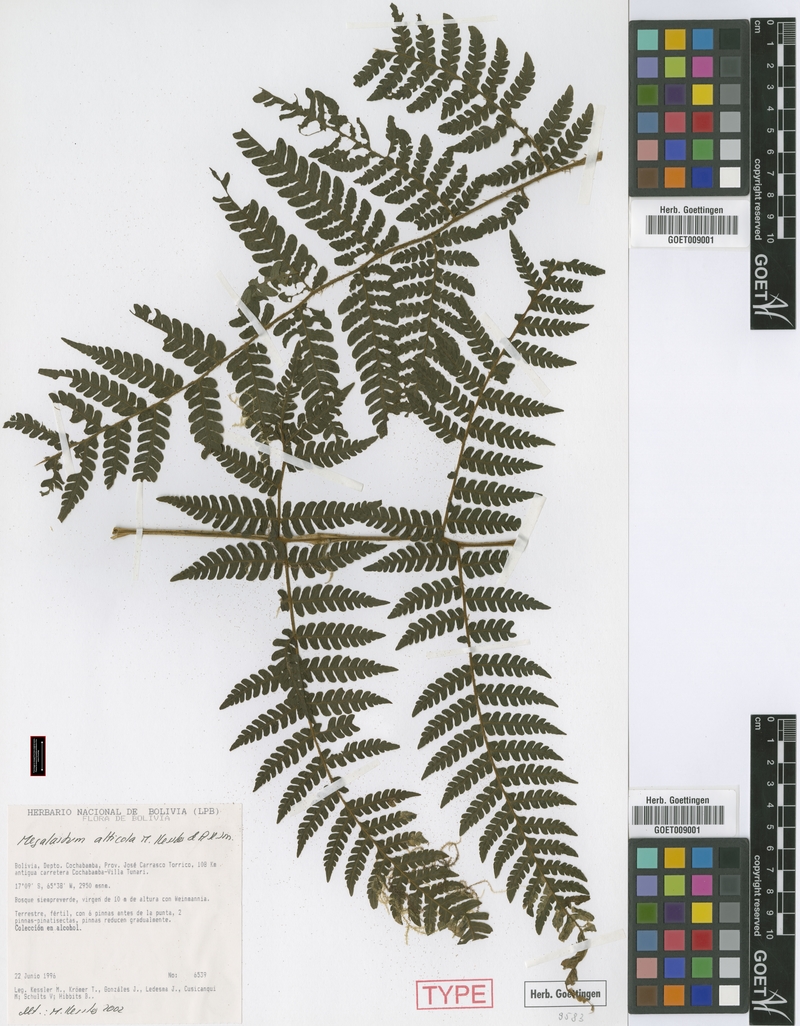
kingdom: Plantae
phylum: Tracheophyta
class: Polypodiopsida
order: Polypodiales
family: Dryopteridaceae
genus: Megalastrum
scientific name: Megalastrum alticola
